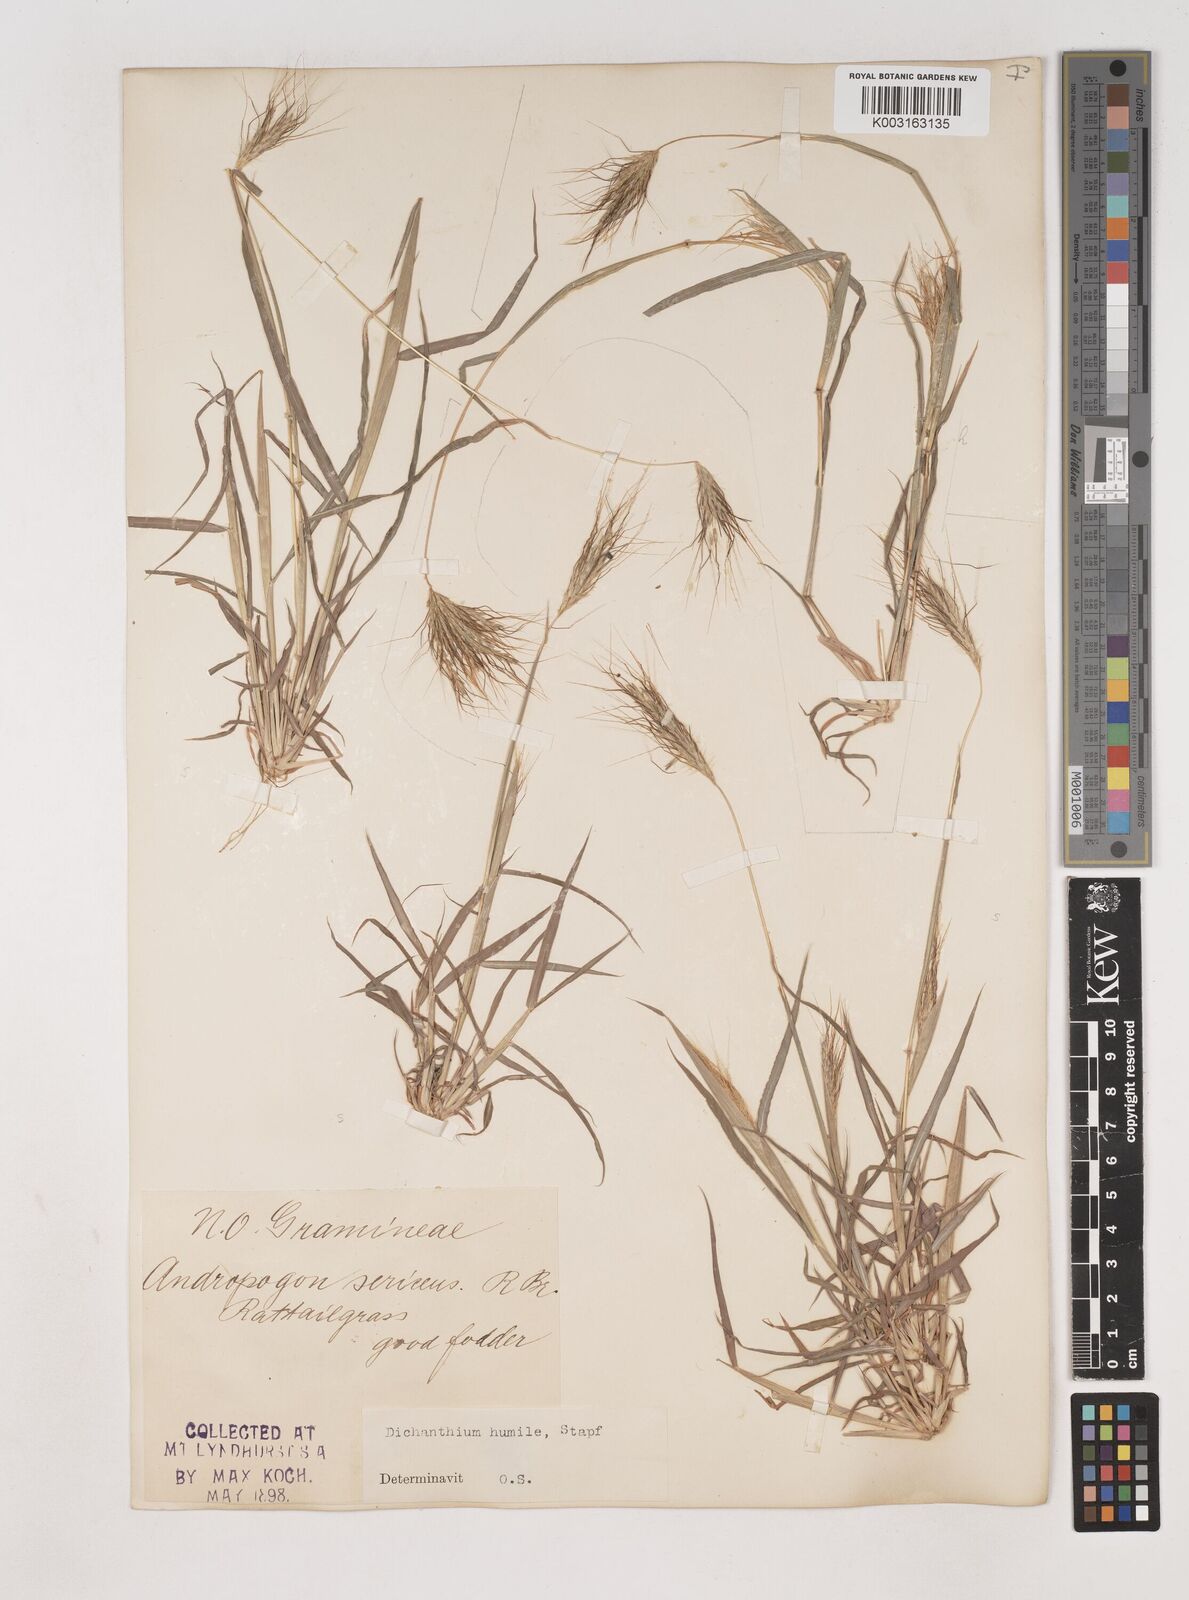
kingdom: Plantae
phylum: Tracheophyta
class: Liliopsida
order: Poales
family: Poaceae
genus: Dichanthium
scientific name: Dichanthium sericeum
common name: Silky bluestem
